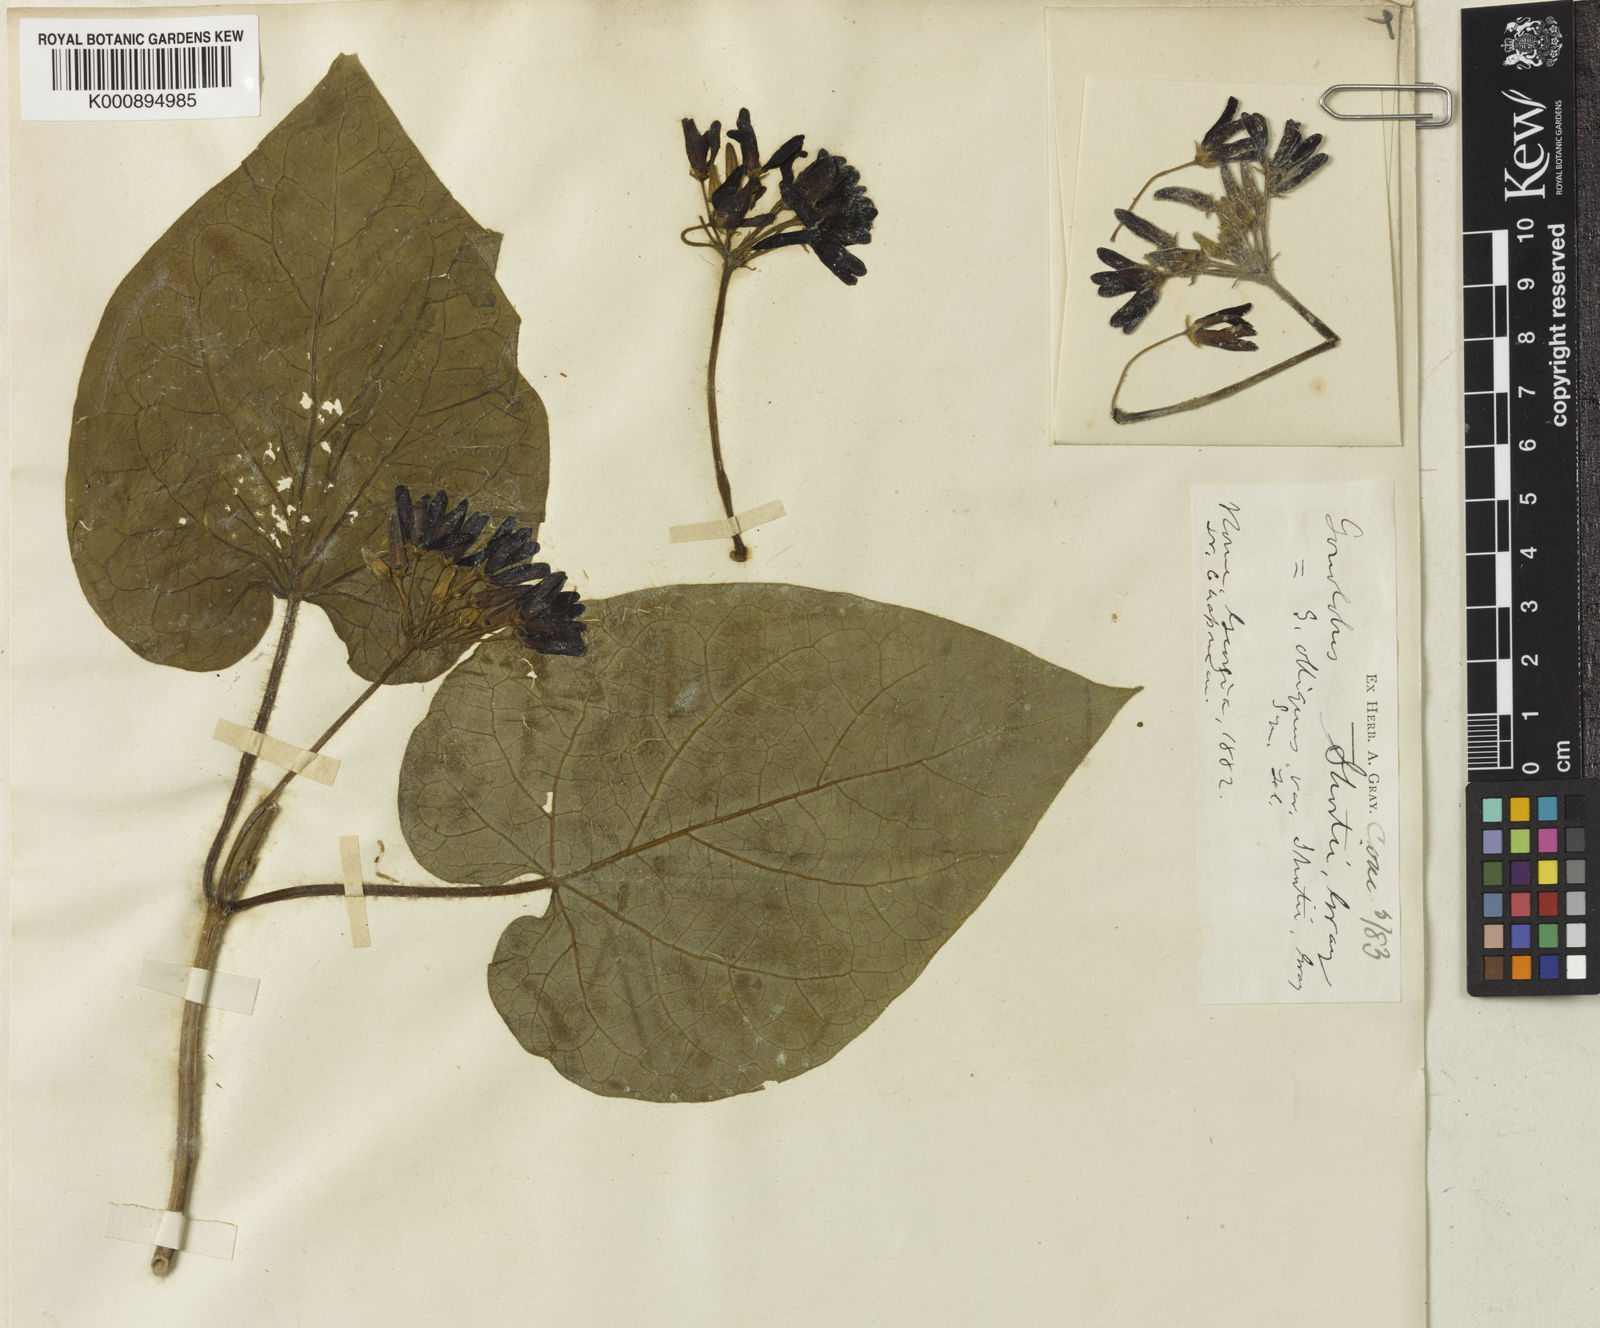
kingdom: Plantae
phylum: Tracheophyta
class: Magnoliopsida
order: Gentianales
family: Apocynaceae
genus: Matelea
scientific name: Matelea obliqua
